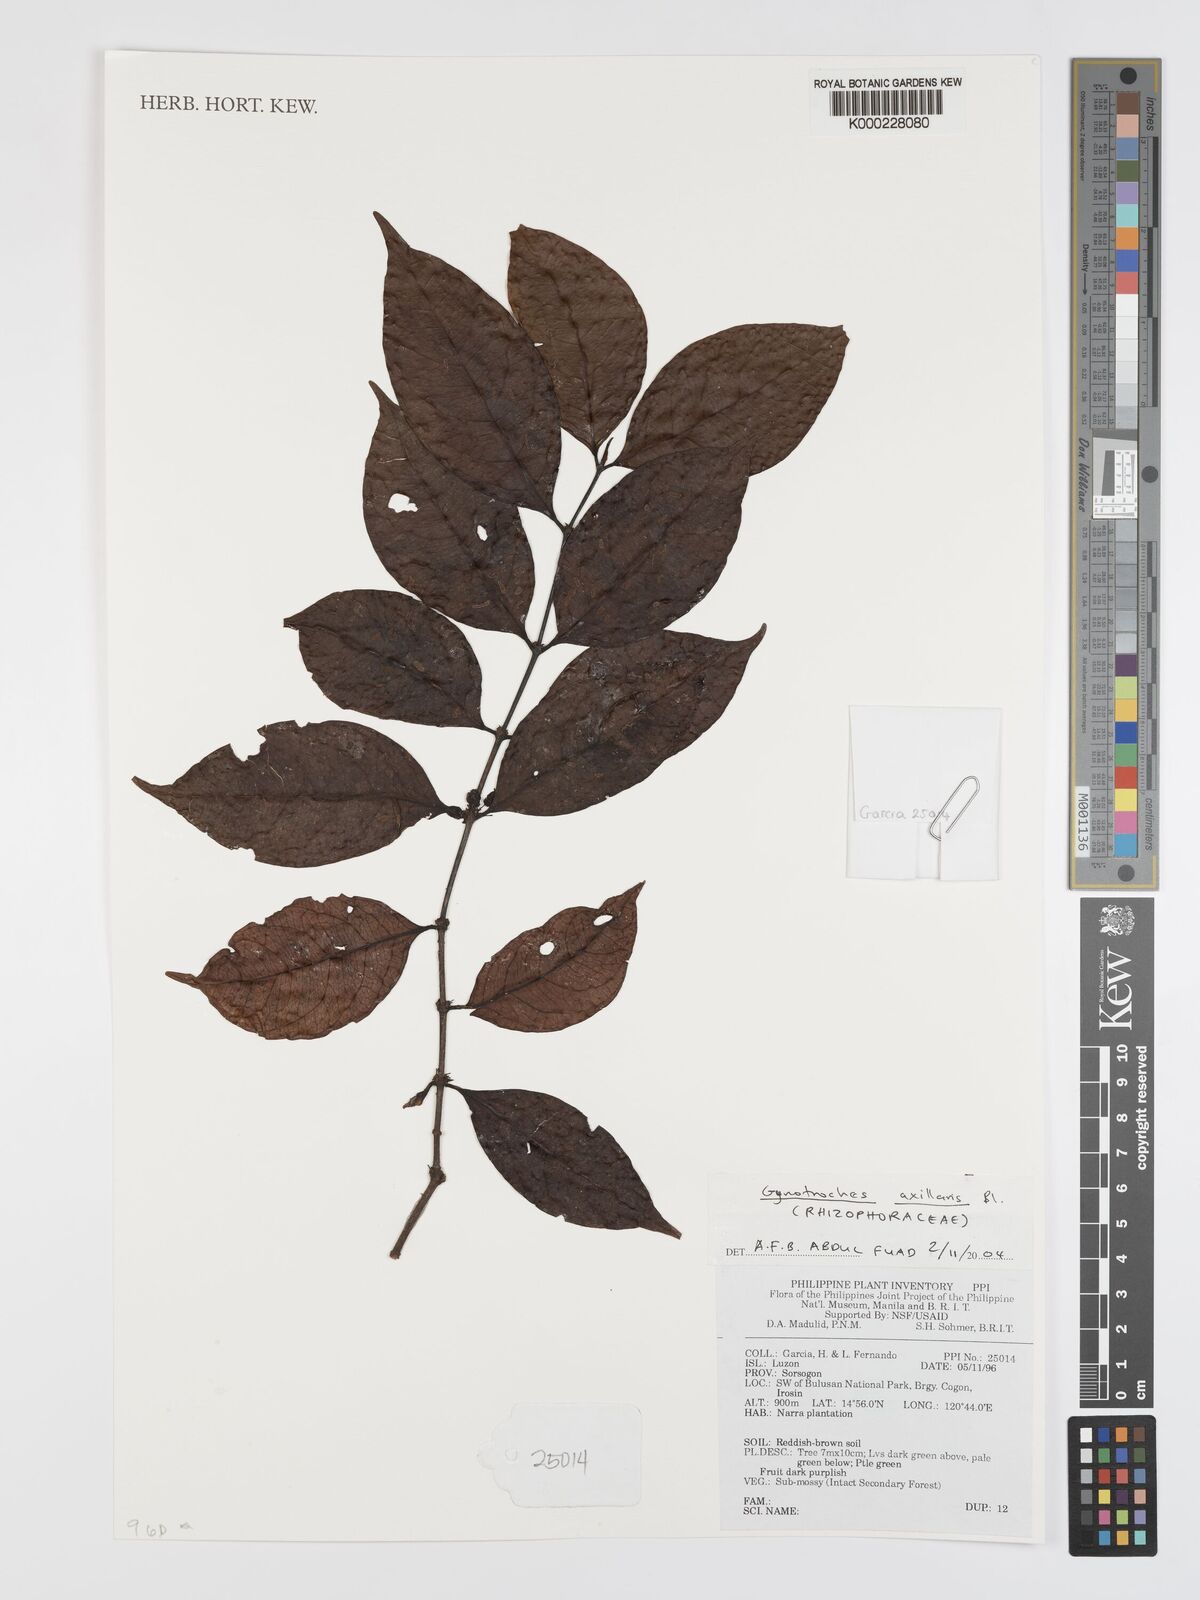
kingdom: Plantae
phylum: Tracheophyta
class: Magnoliopsida
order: Malpighiales
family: Rhizophoraceae
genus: Gynotroches
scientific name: Gynotroches axillaris
